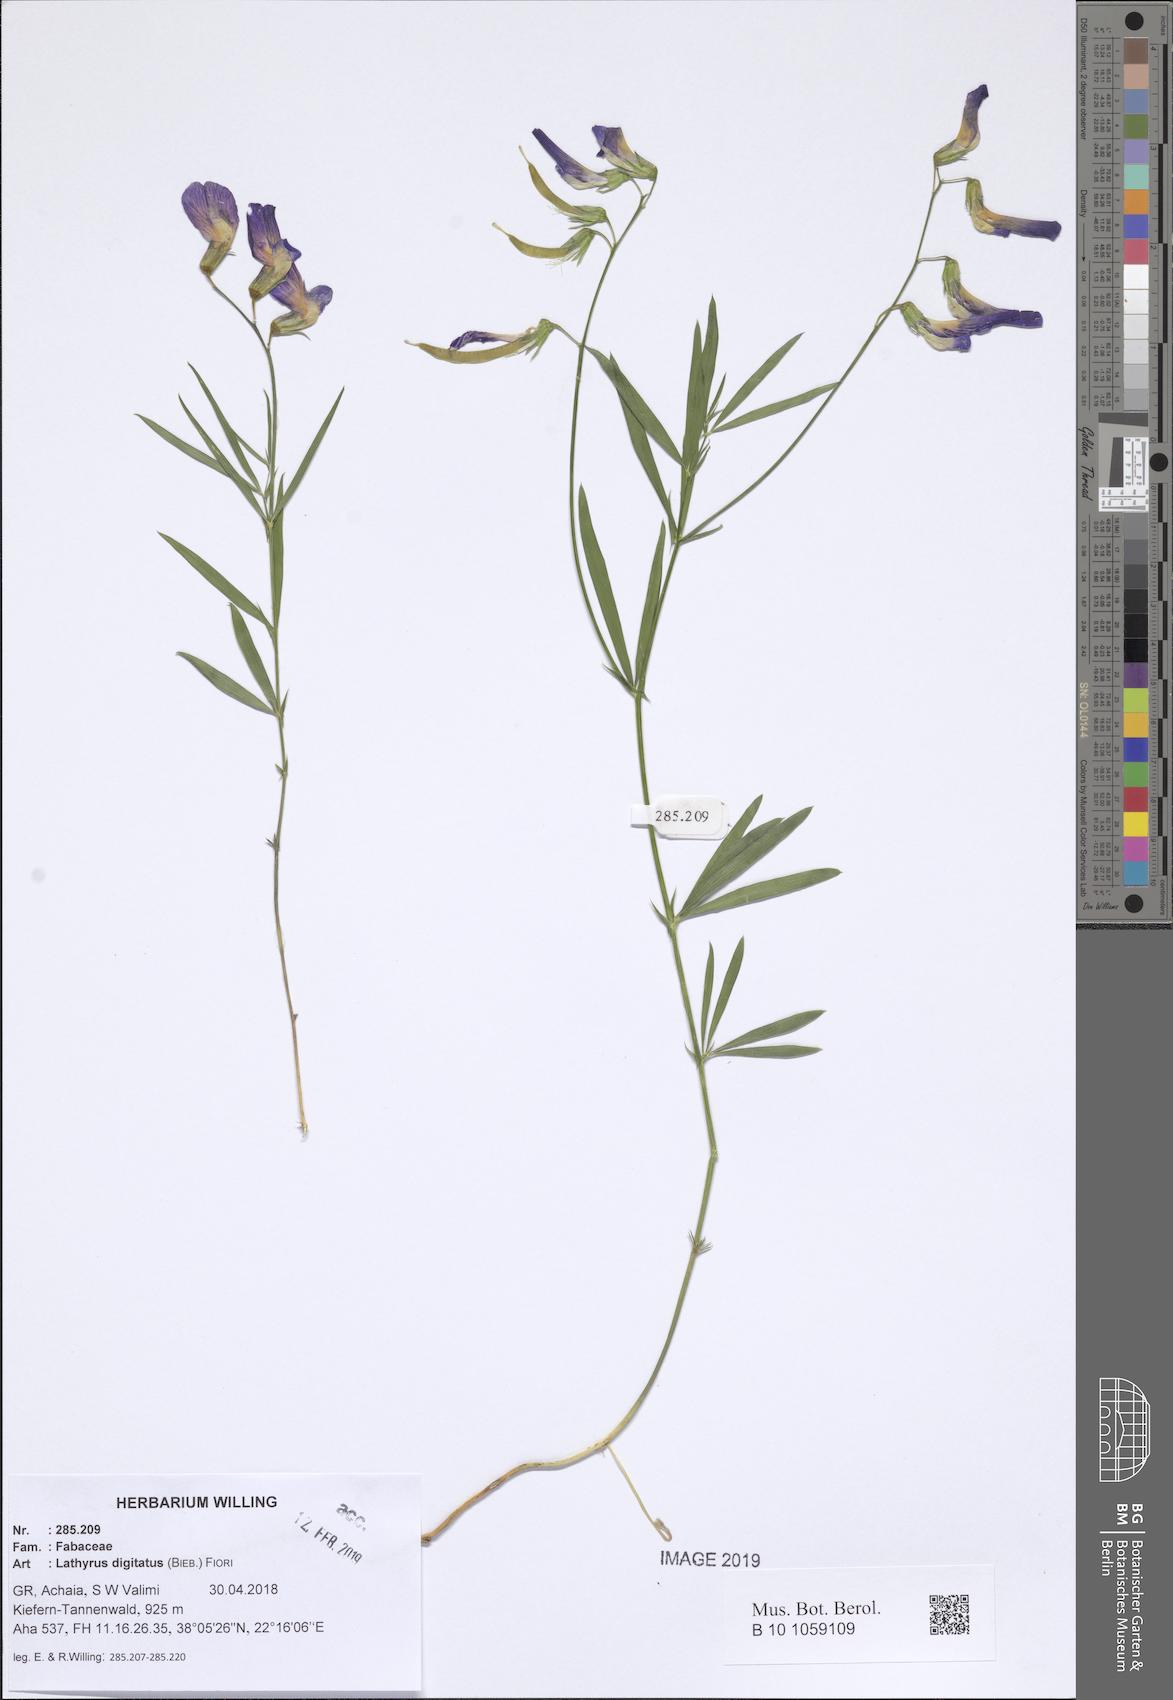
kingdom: Plantae
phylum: Tracheophyta
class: Magnoliopsida
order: Fabales
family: Fabaceae
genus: Lathyrus
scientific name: Lathyrus digitatus
